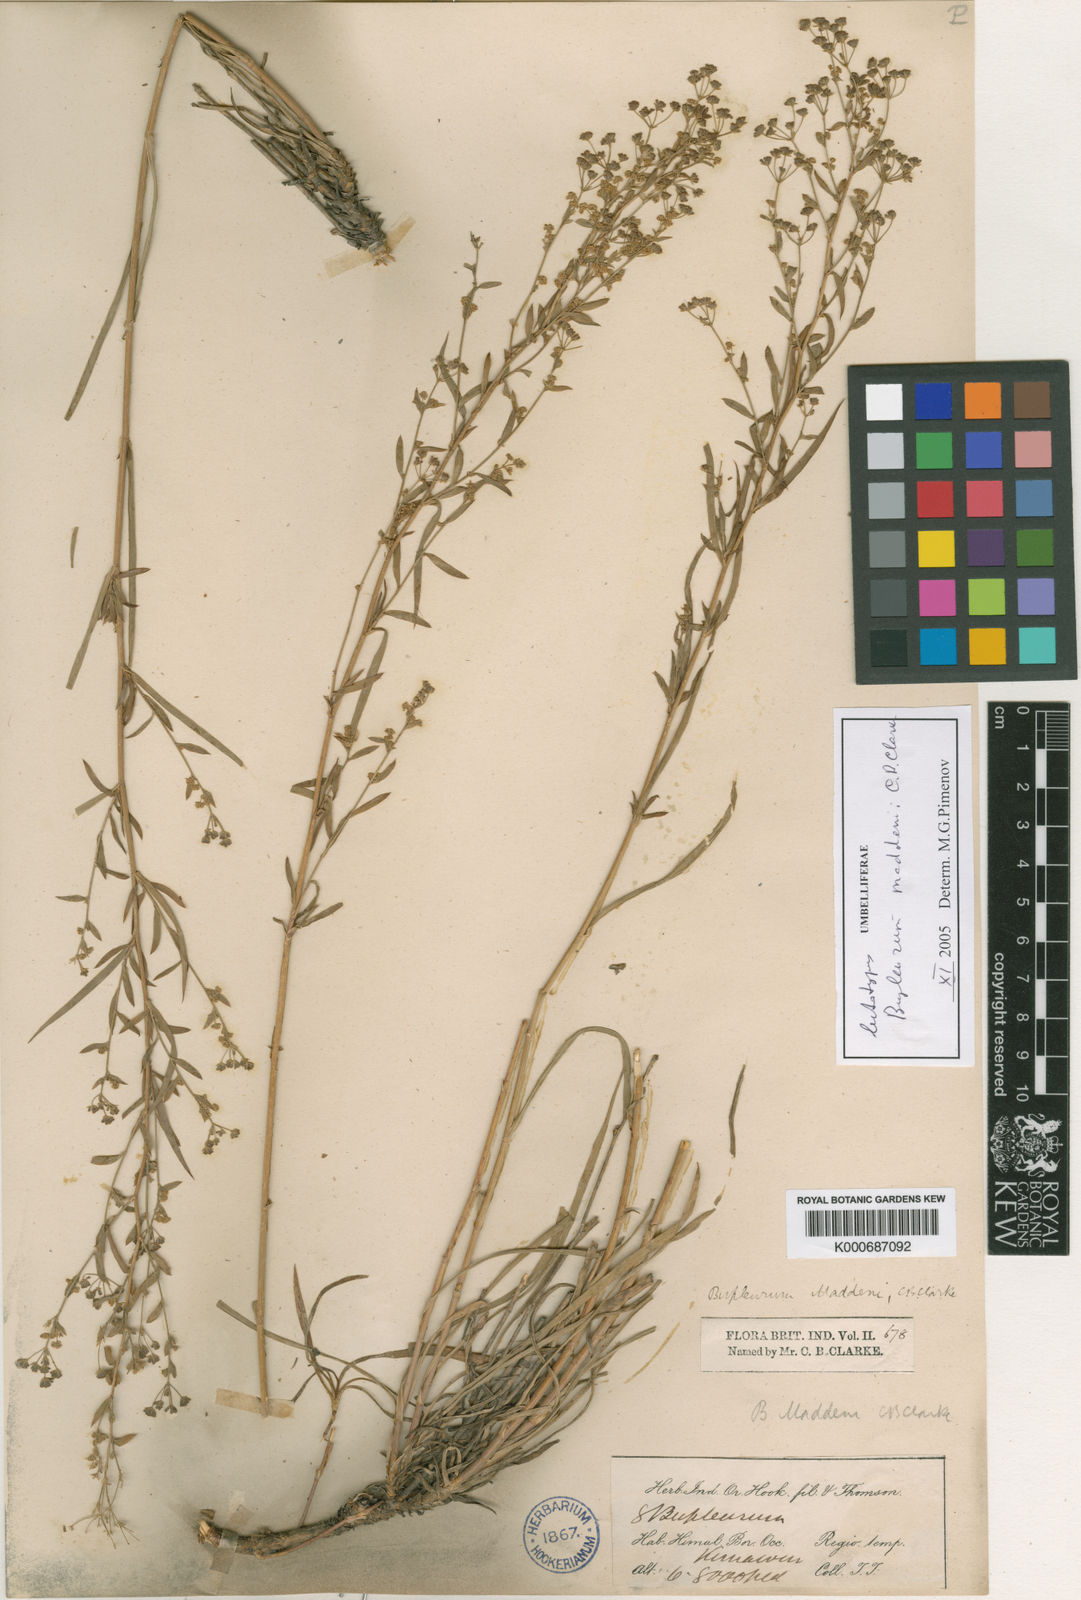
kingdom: Plantae
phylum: Tracheophyta
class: Magnoliopsida
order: Apiales
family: Apiaceae
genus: Bupleurum
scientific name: Bupleurum maddenii
